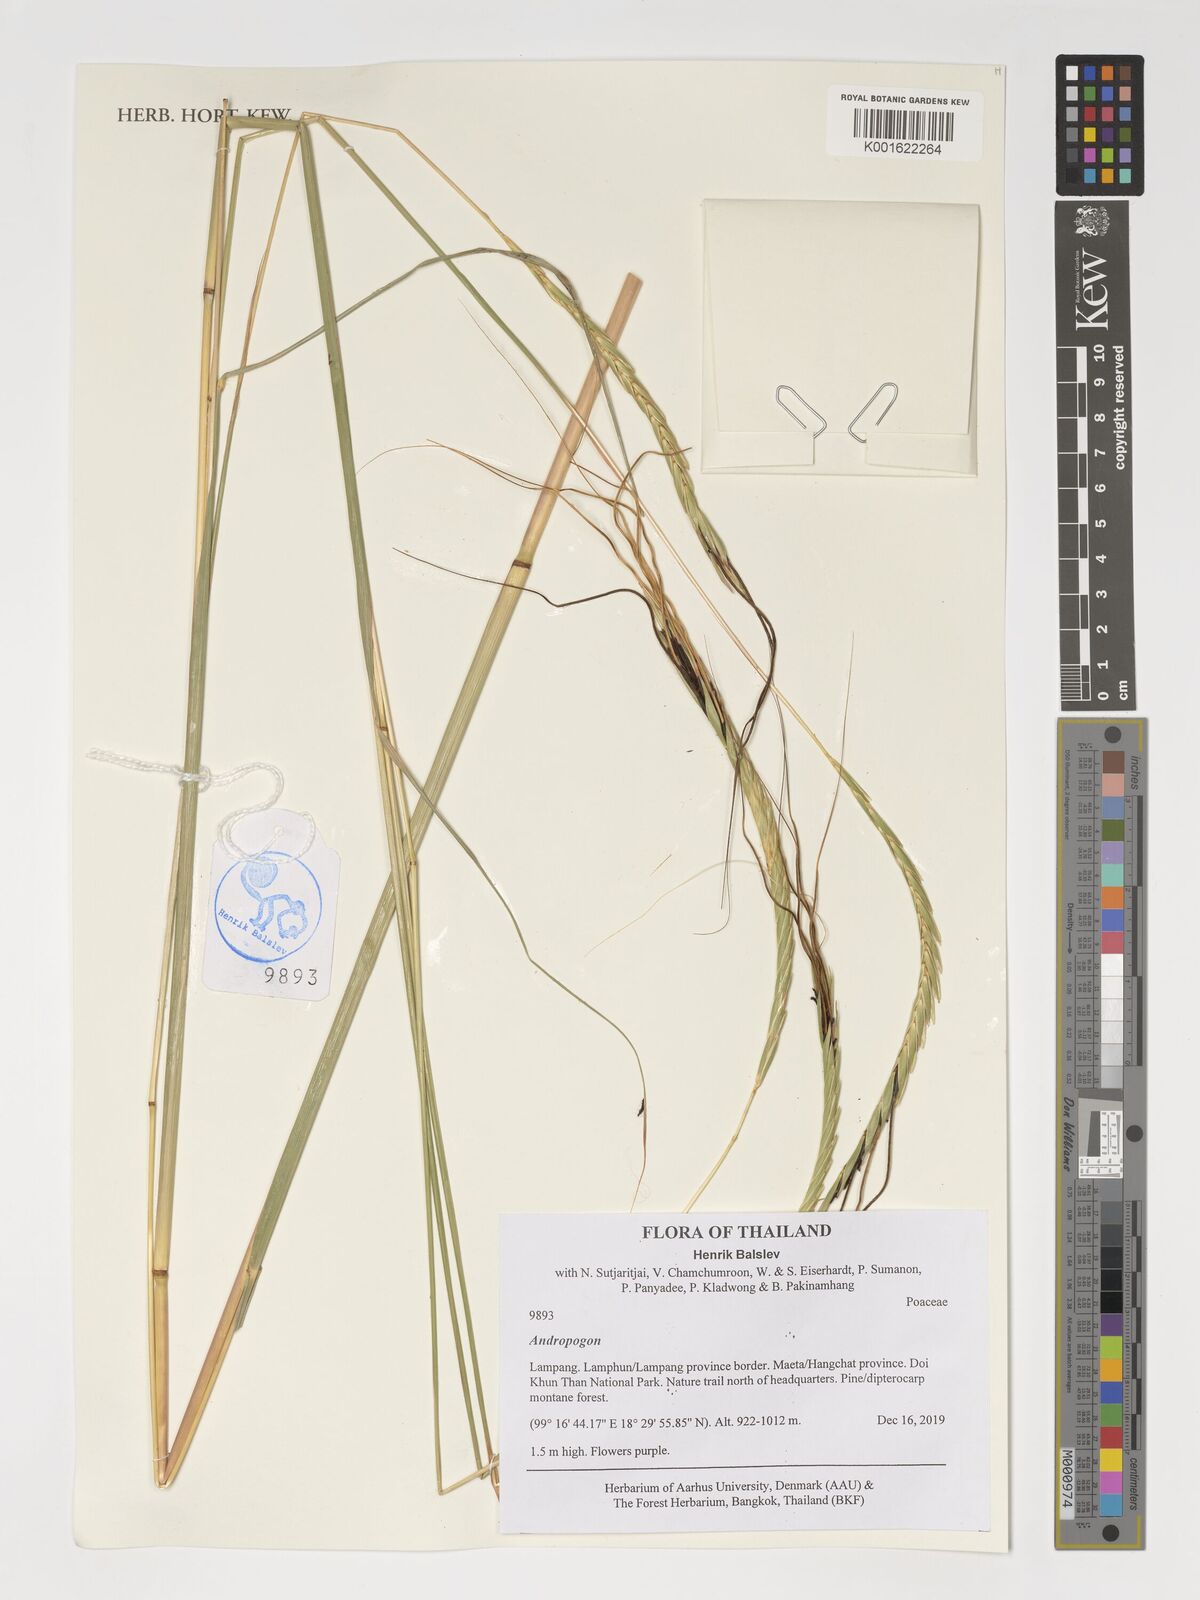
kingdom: Plantae
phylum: Tracheophyta
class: Liliopsida
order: Poales
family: Poaceae
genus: Andropogon
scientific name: Andropogon
